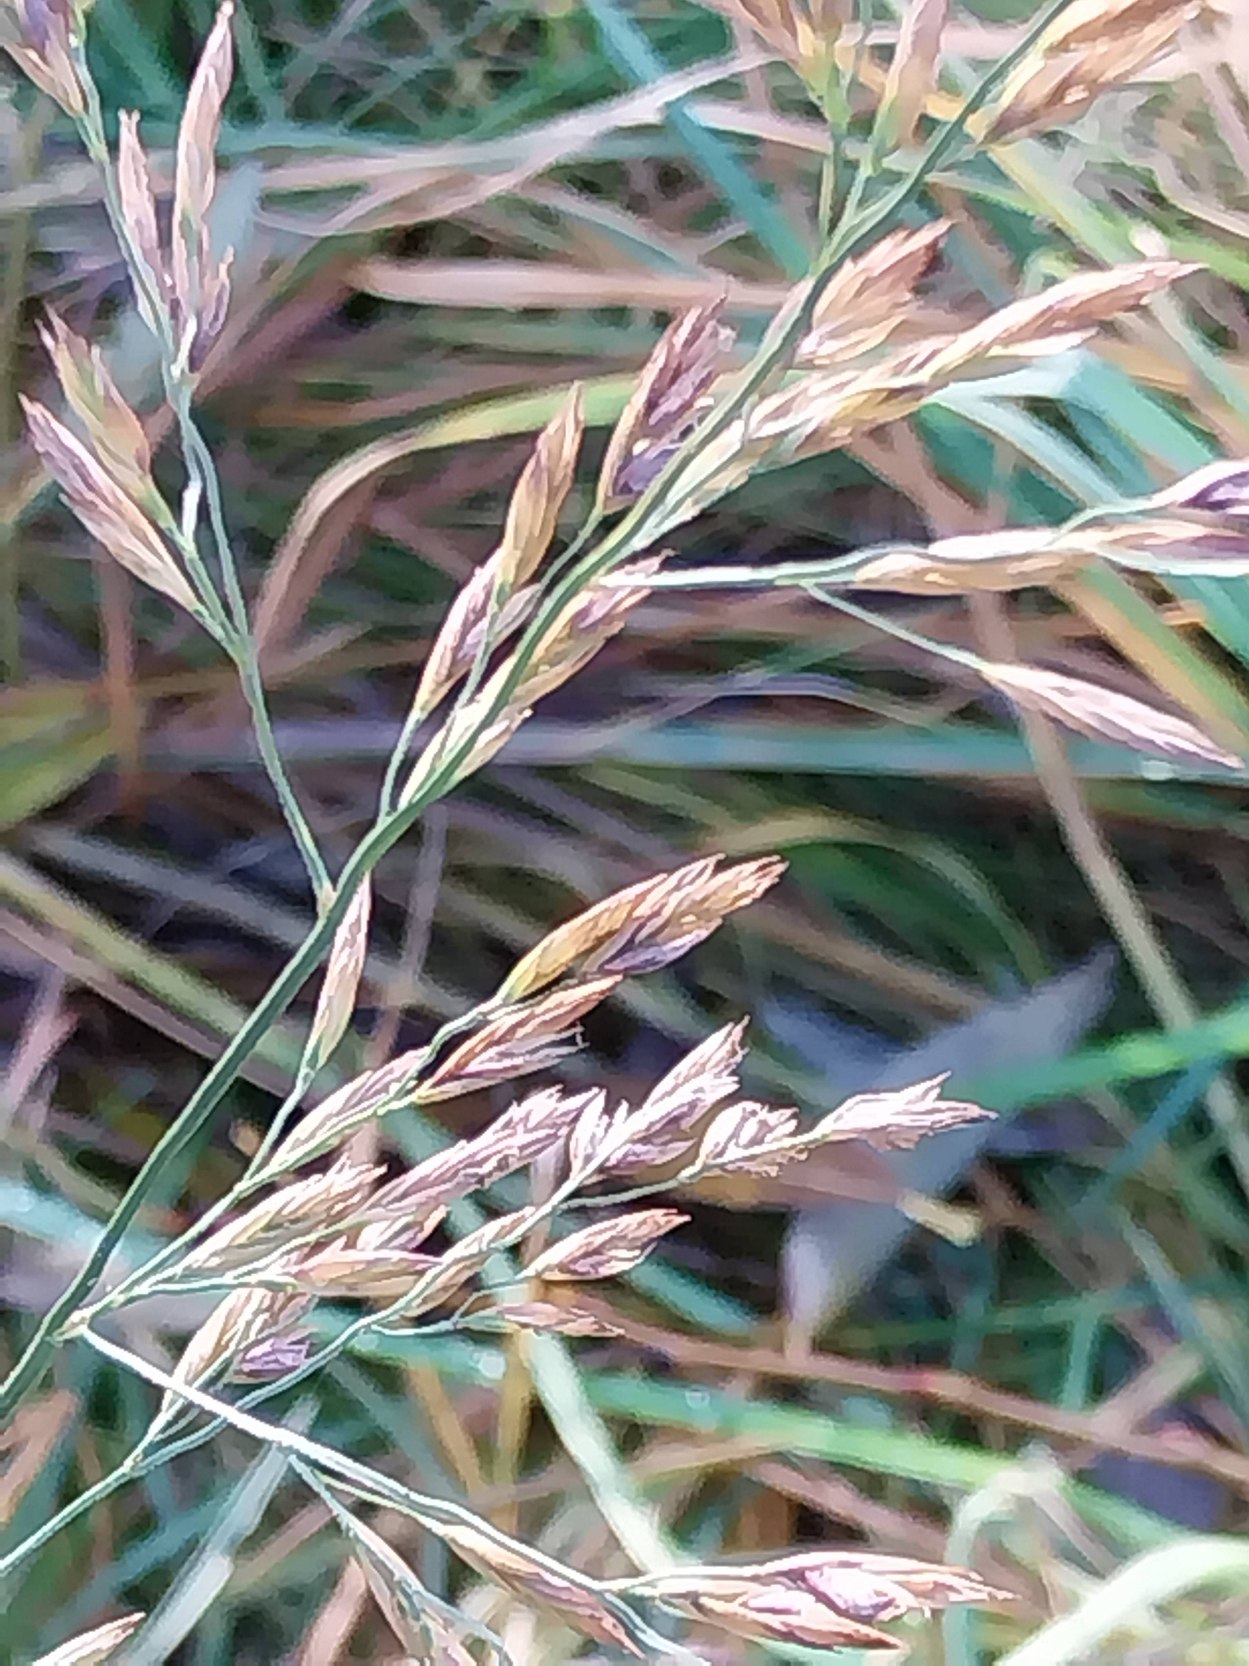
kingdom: Plantae
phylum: Tracheophyta
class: Liliopsida
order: Poales
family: Poaceae
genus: Lolium
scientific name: Lolium arundinaceum
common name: Strand-svingel
